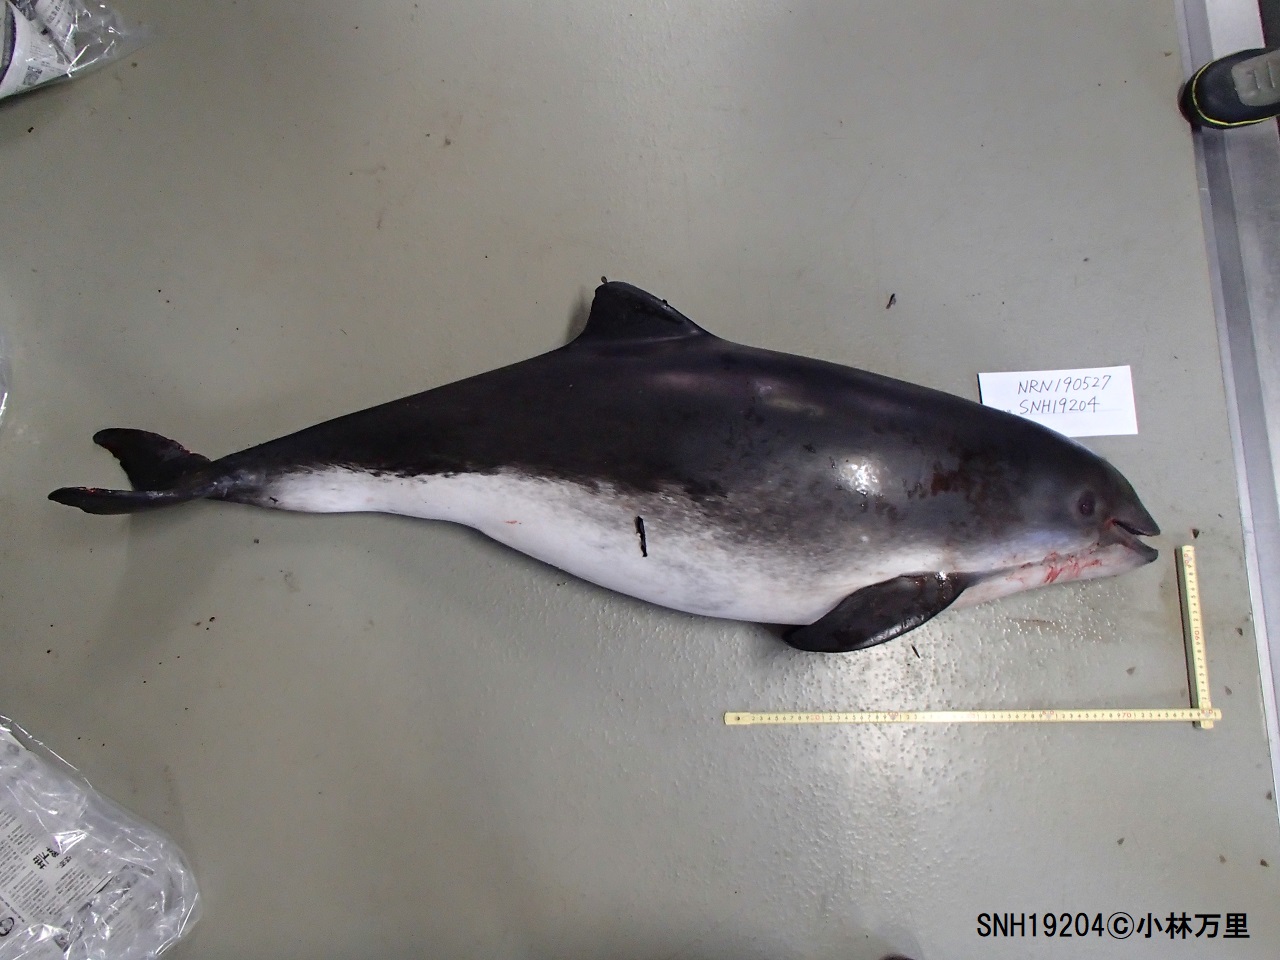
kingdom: Animalia
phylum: Chordata
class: Mammalia
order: Cetacea
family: Phocoenidae
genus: Phocoena
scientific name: Phocoena phocoena
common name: Harbour porpoise
